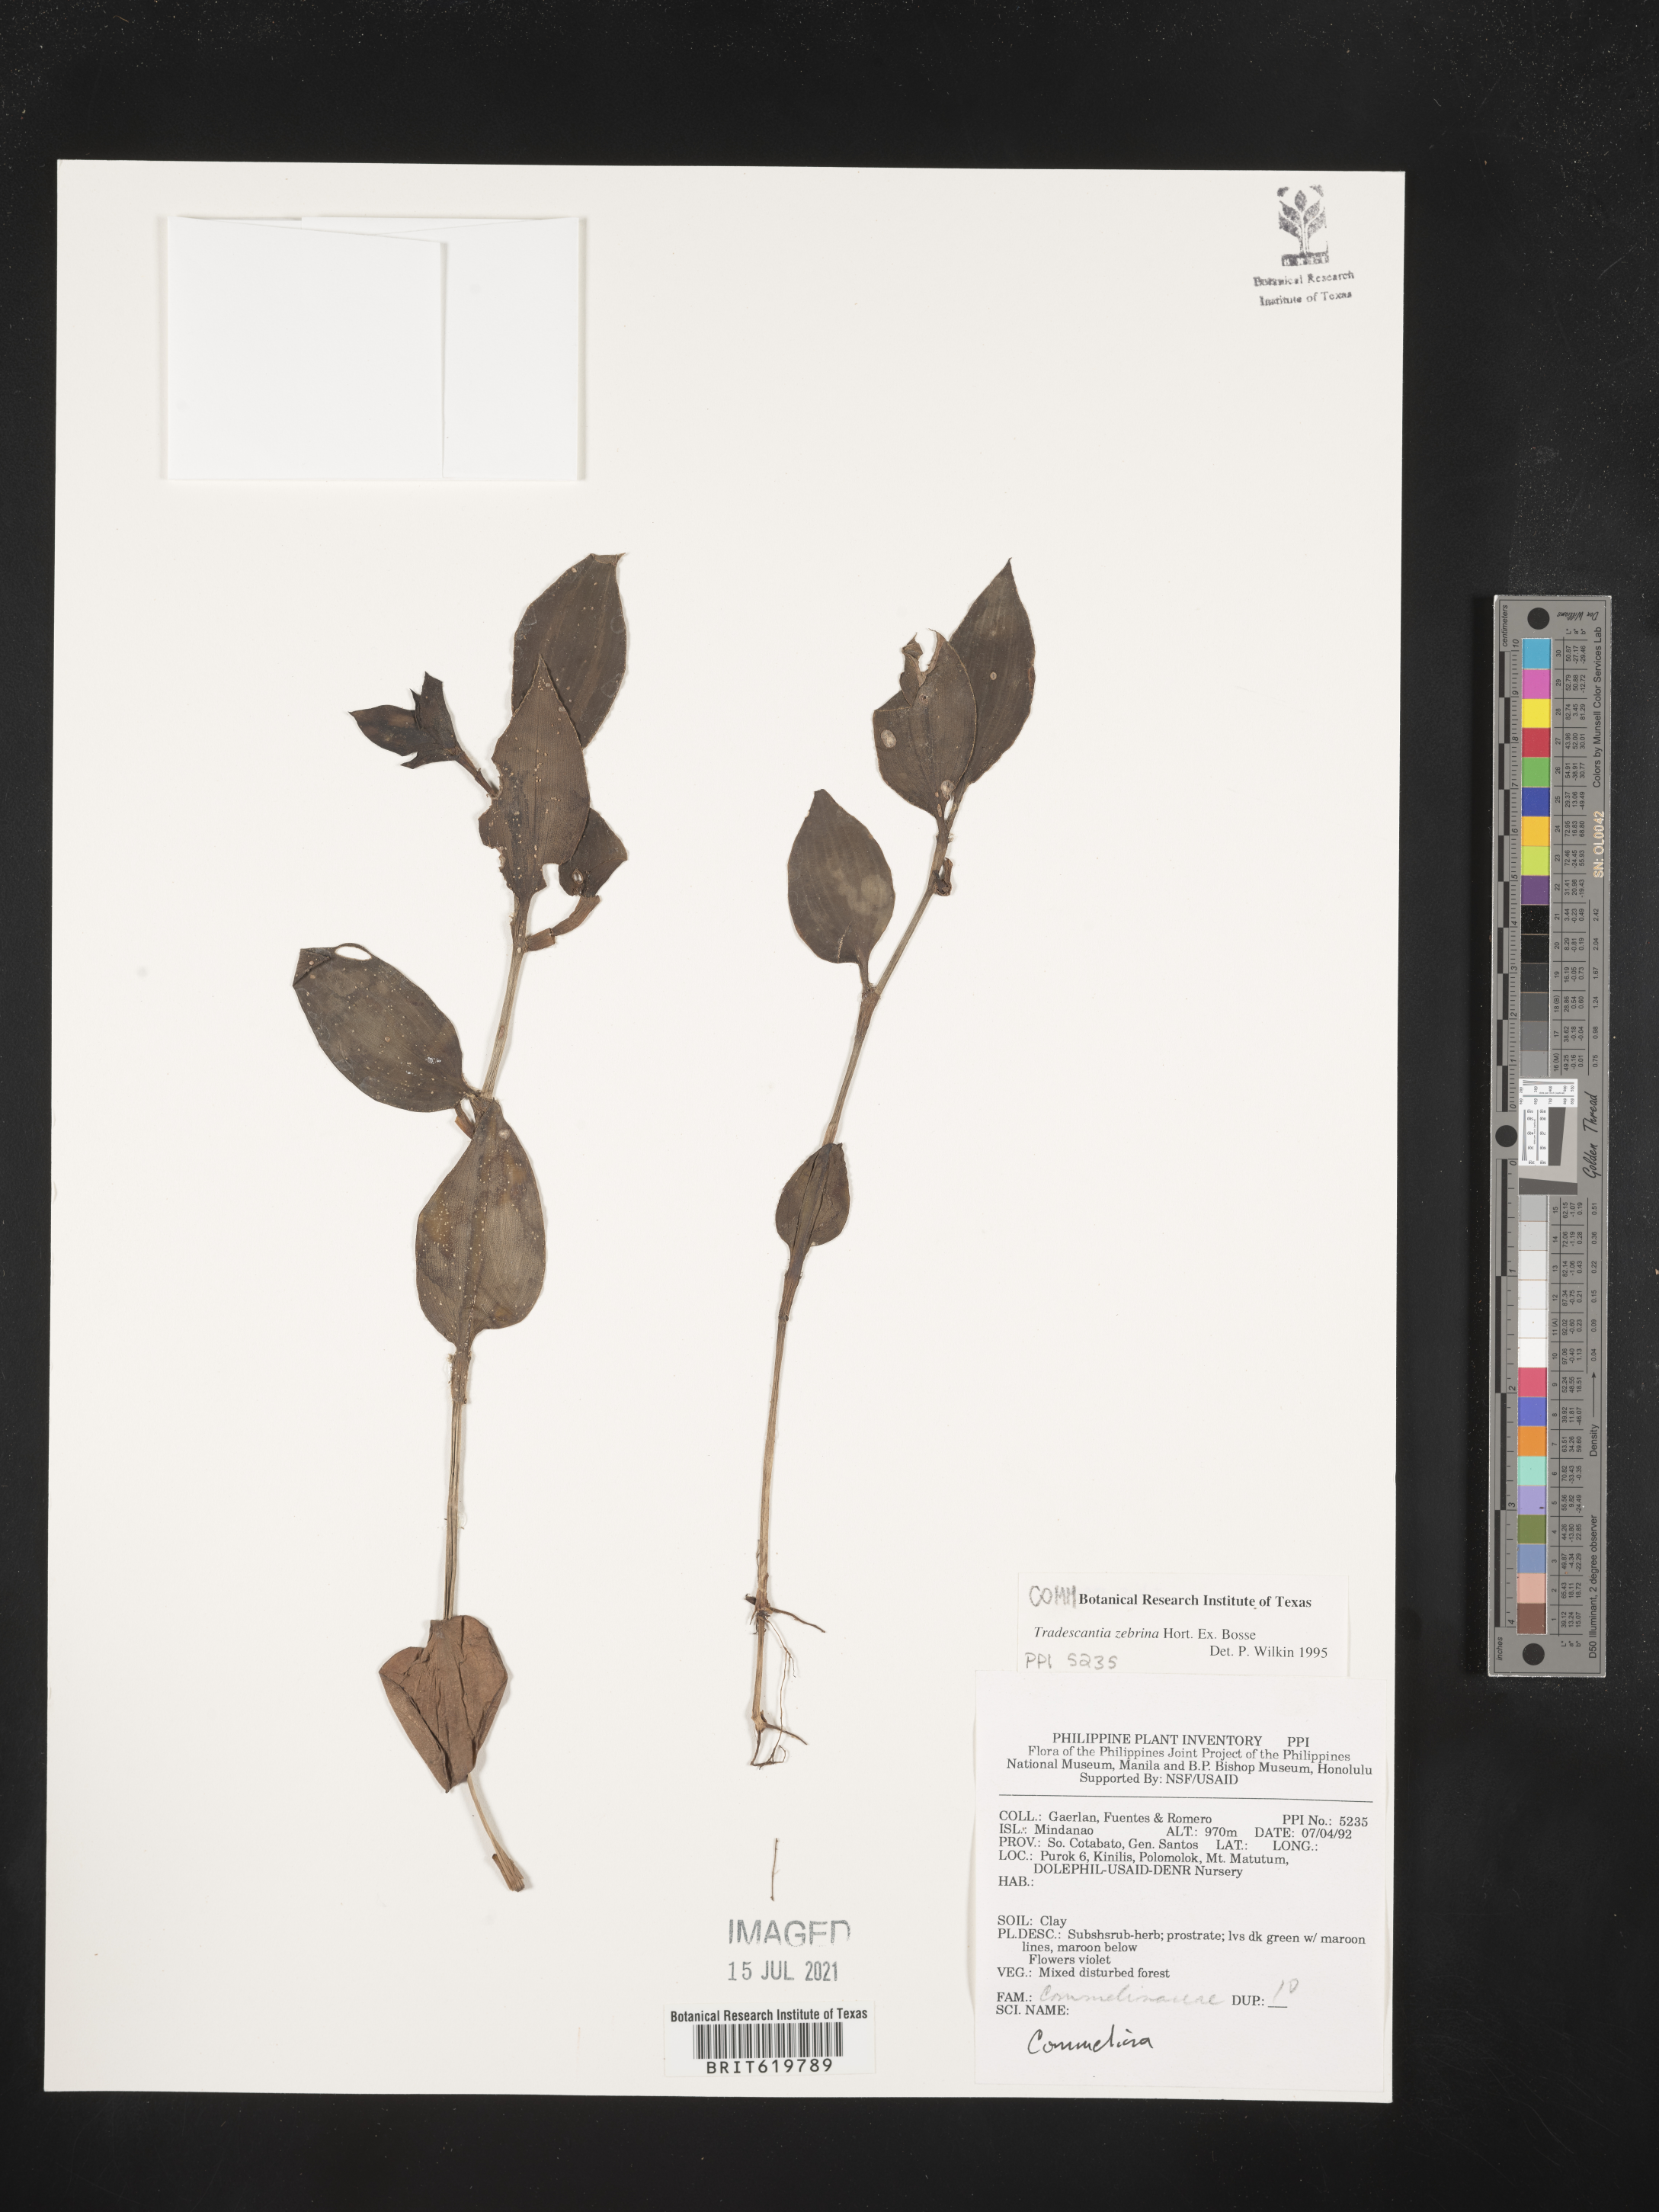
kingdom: Plantae
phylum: Tracheophyta
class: Liliopsida
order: Commelinales
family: Commelinaceae
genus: Tradescantia
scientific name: Tradescantia zebrina
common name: Inchplant
